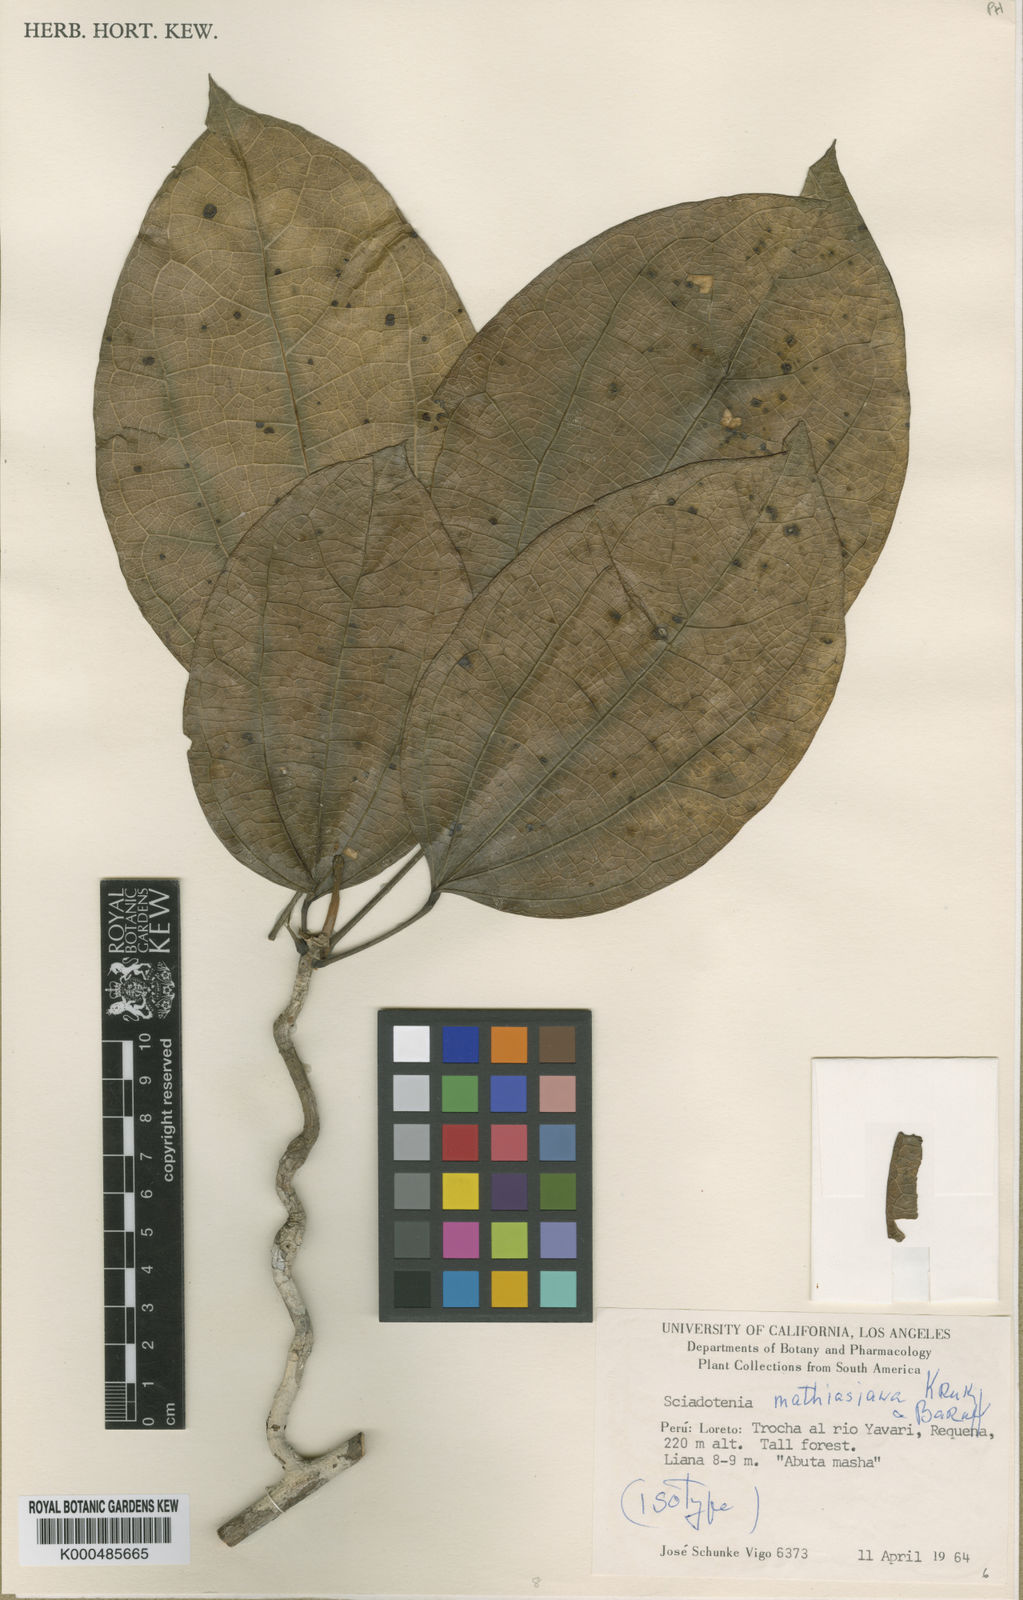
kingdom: Plantae
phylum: Tracheophyta
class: Magnoliopsida
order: Ranunculales
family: Menispermaceae
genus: Sciadotenia
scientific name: Sciadotenia mathiasiana
